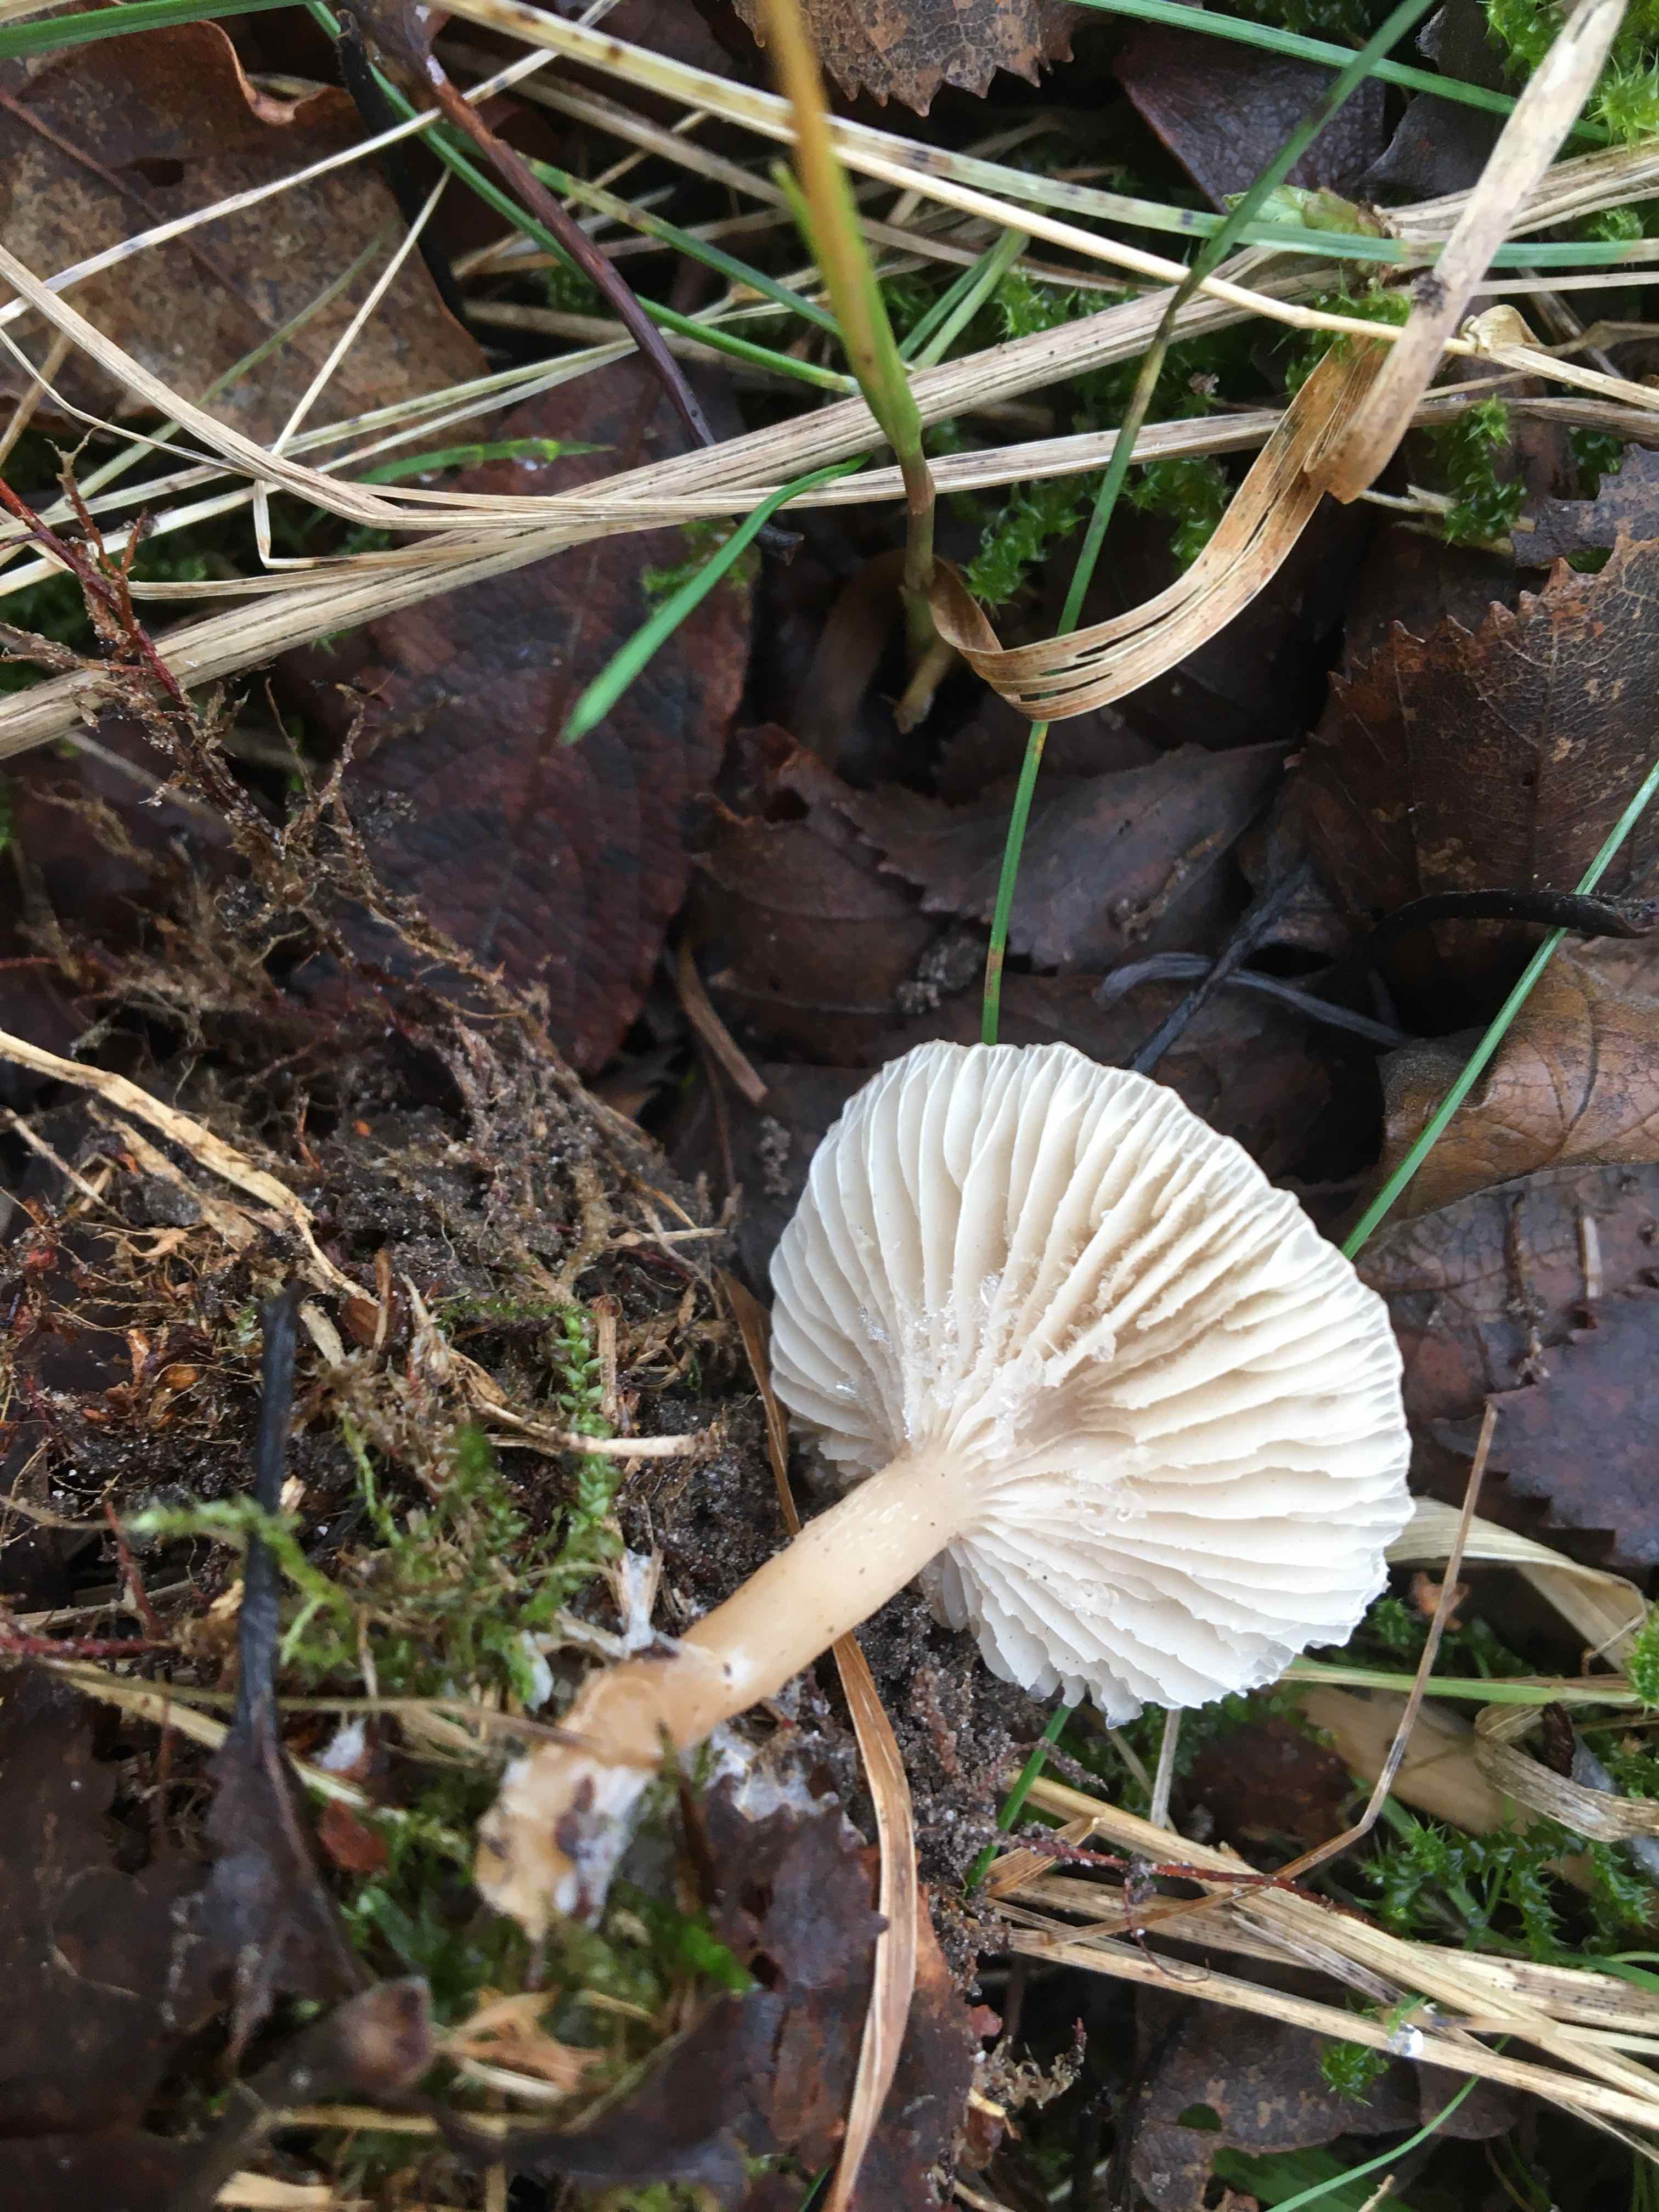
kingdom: Fungi
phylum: Basidiomycota
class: Agaricomycetes
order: Agaricales
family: Tricholomataceae
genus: Clitocybe
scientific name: Clitocybe fragrans
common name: vellugtende tragthat
